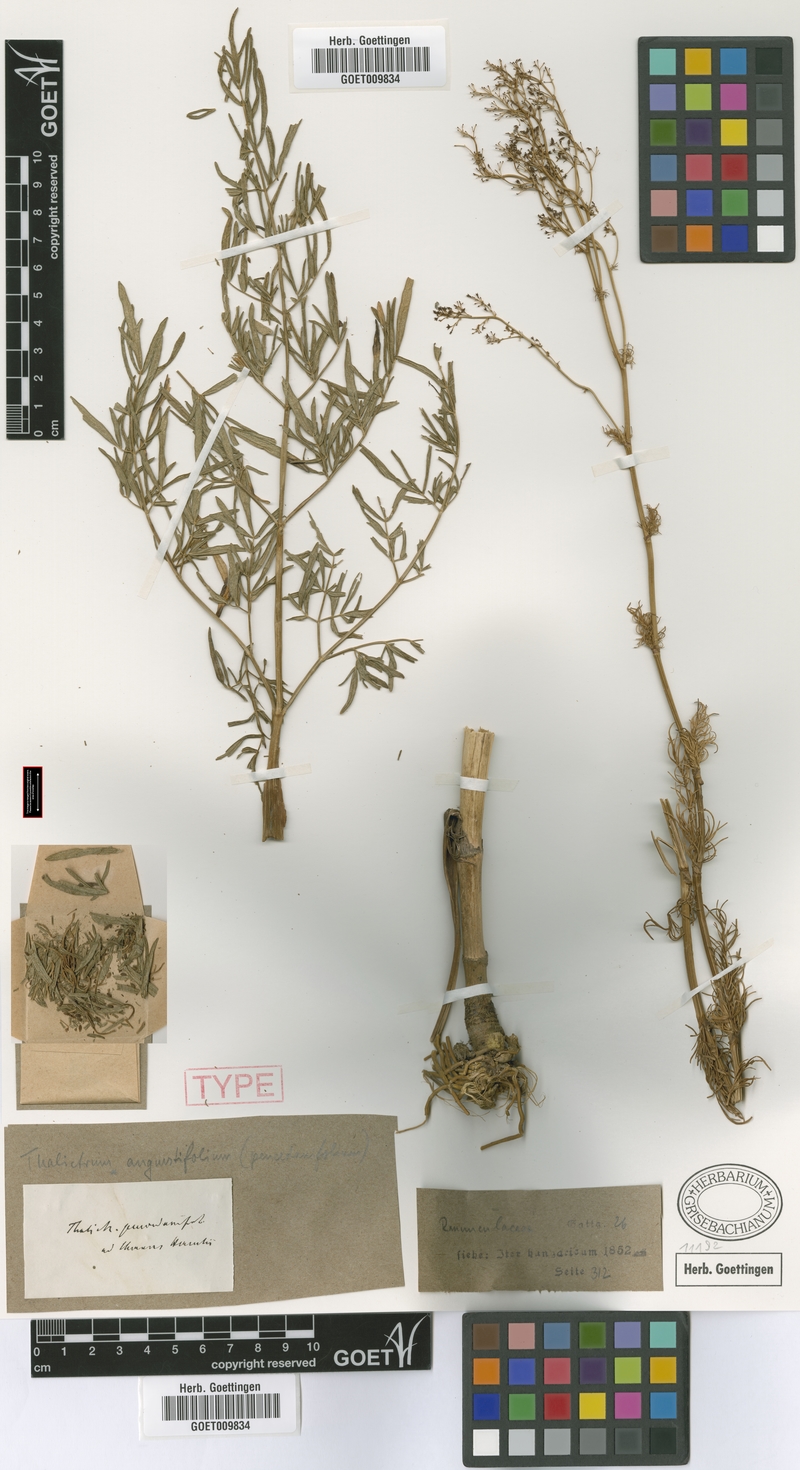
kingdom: Plantae
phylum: Tracheophyta
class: Magnoliopsida
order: Ranunculales
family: Ranunculaceae
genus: Thalictrum
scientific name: Thalictrum lucidum
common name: Shining meadow-rue
